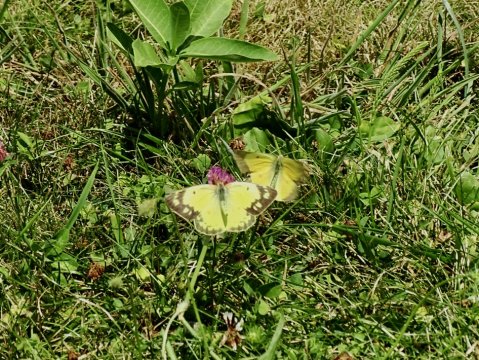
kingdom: Animalia
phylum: Arthropoda
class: Insecta
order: Lepidoptera
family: Pieridae
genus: Colias
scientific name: Colias eurytheme
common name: Orange Sulphur
